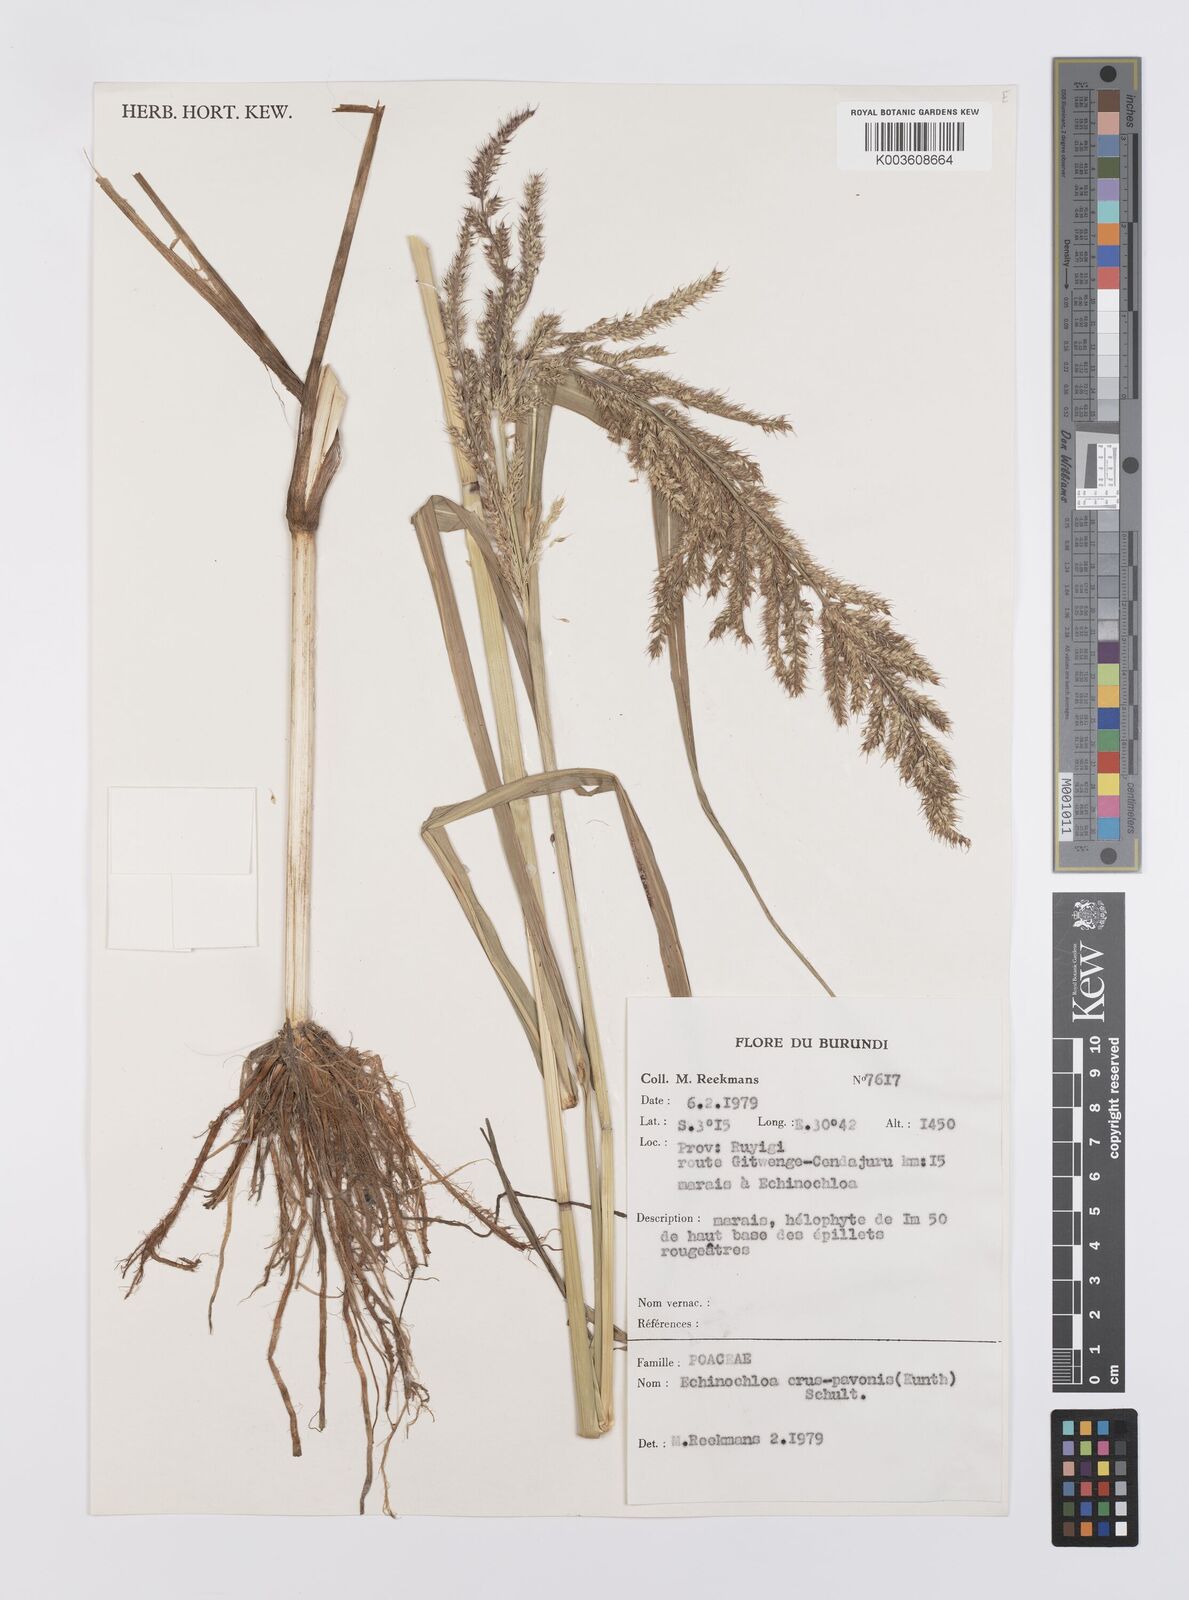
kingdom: Plantae
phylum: Tracheophyta
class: Liliopsida
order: Poales
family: Poaceae
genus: Echinochloa
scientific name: Echinochloa crus-pavonis
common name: Gulf cockspur grass
